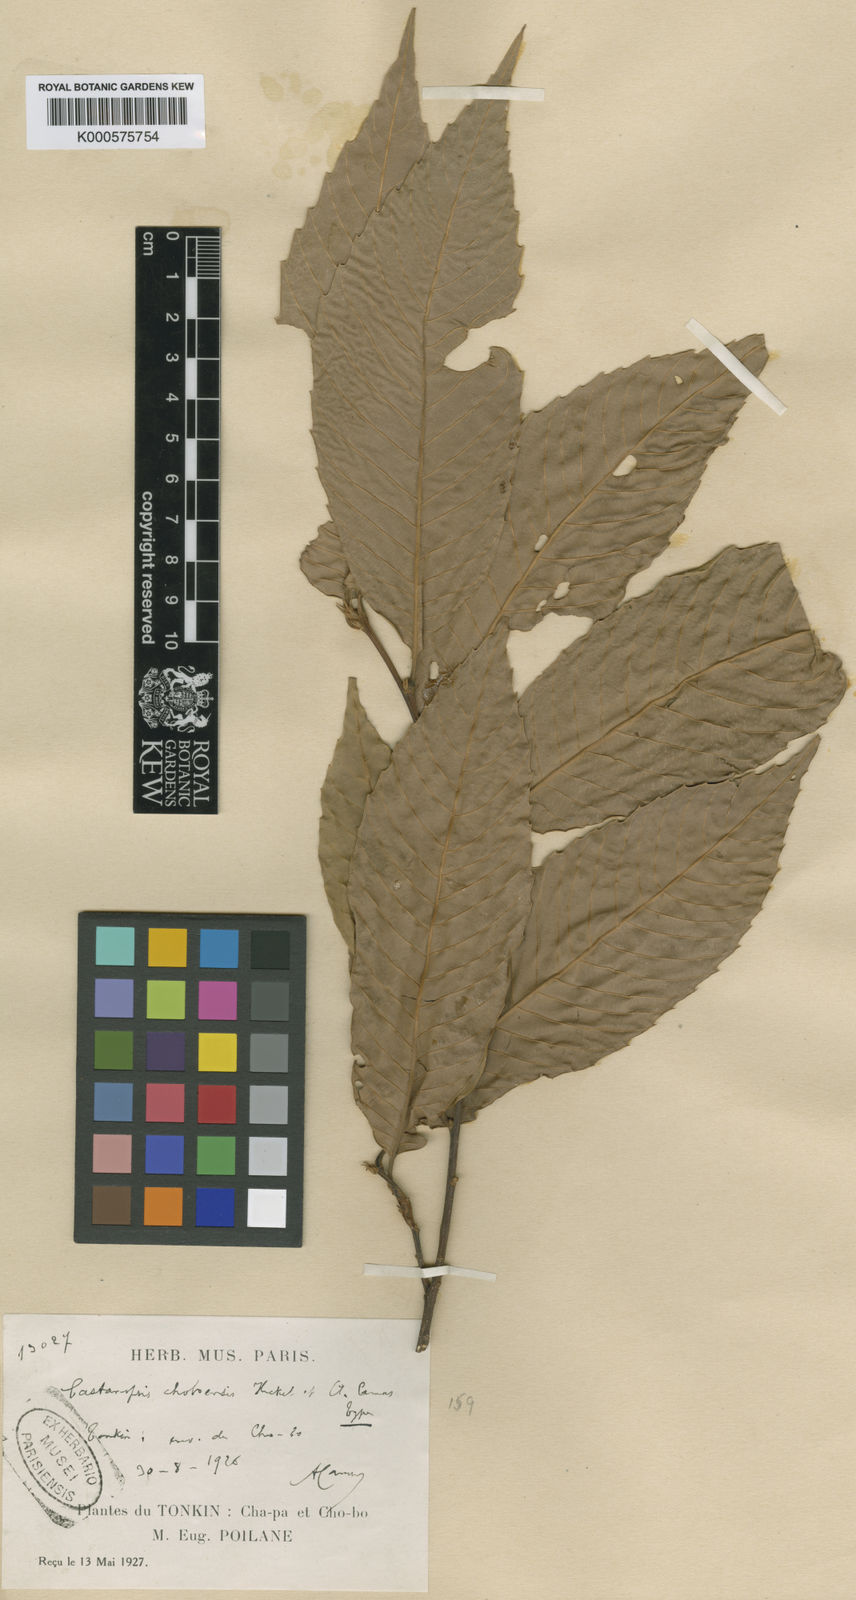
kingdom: Plantae
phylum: Tracheophyta
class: Magnoliopsida
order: Fagales
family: Fagaceae
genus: Castanopsis
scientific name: Castanopsis choboensis
